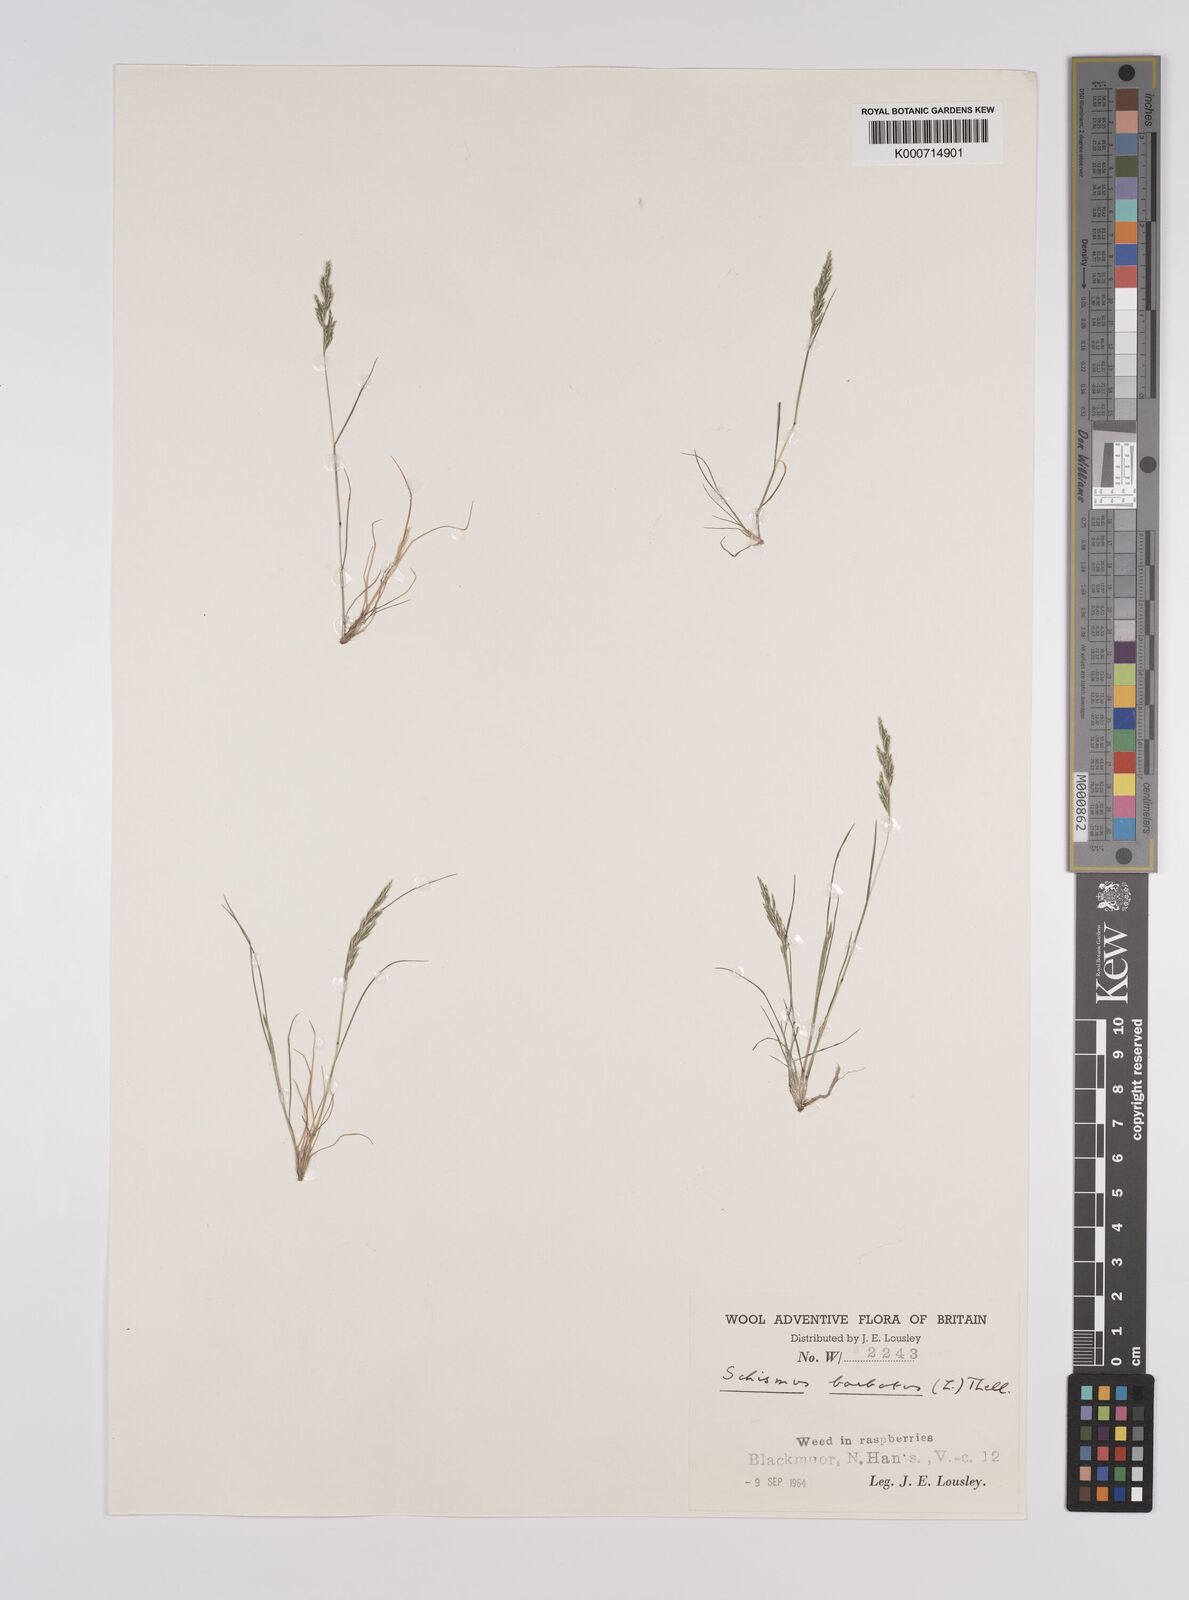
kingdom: Plantae
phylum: Tracheophyta
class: Liliopsida
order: Poales
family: Poaceae
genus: Schismus
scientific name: Schismus barbatus
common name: Kelch-grass
